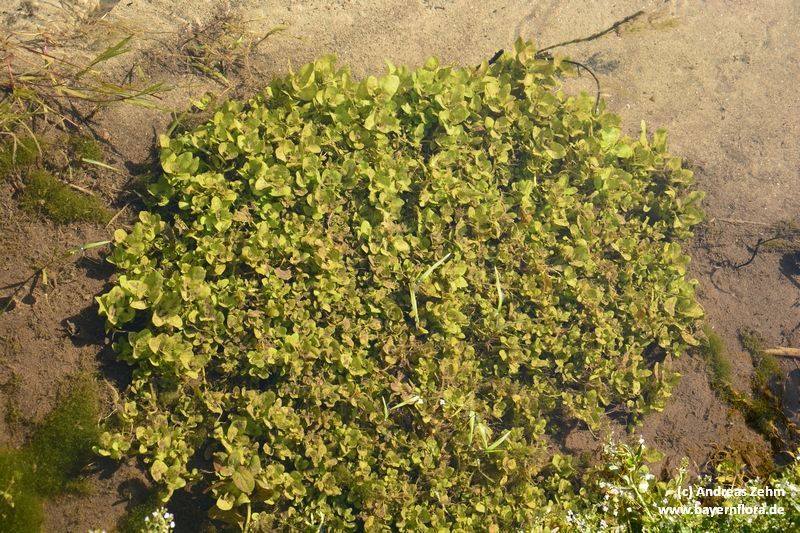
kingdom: Plantae
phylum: Tracheophyta
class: Magnoliopsida
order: Lamiales
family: Plantaginaceae
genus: Veronica
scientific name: Veronica
